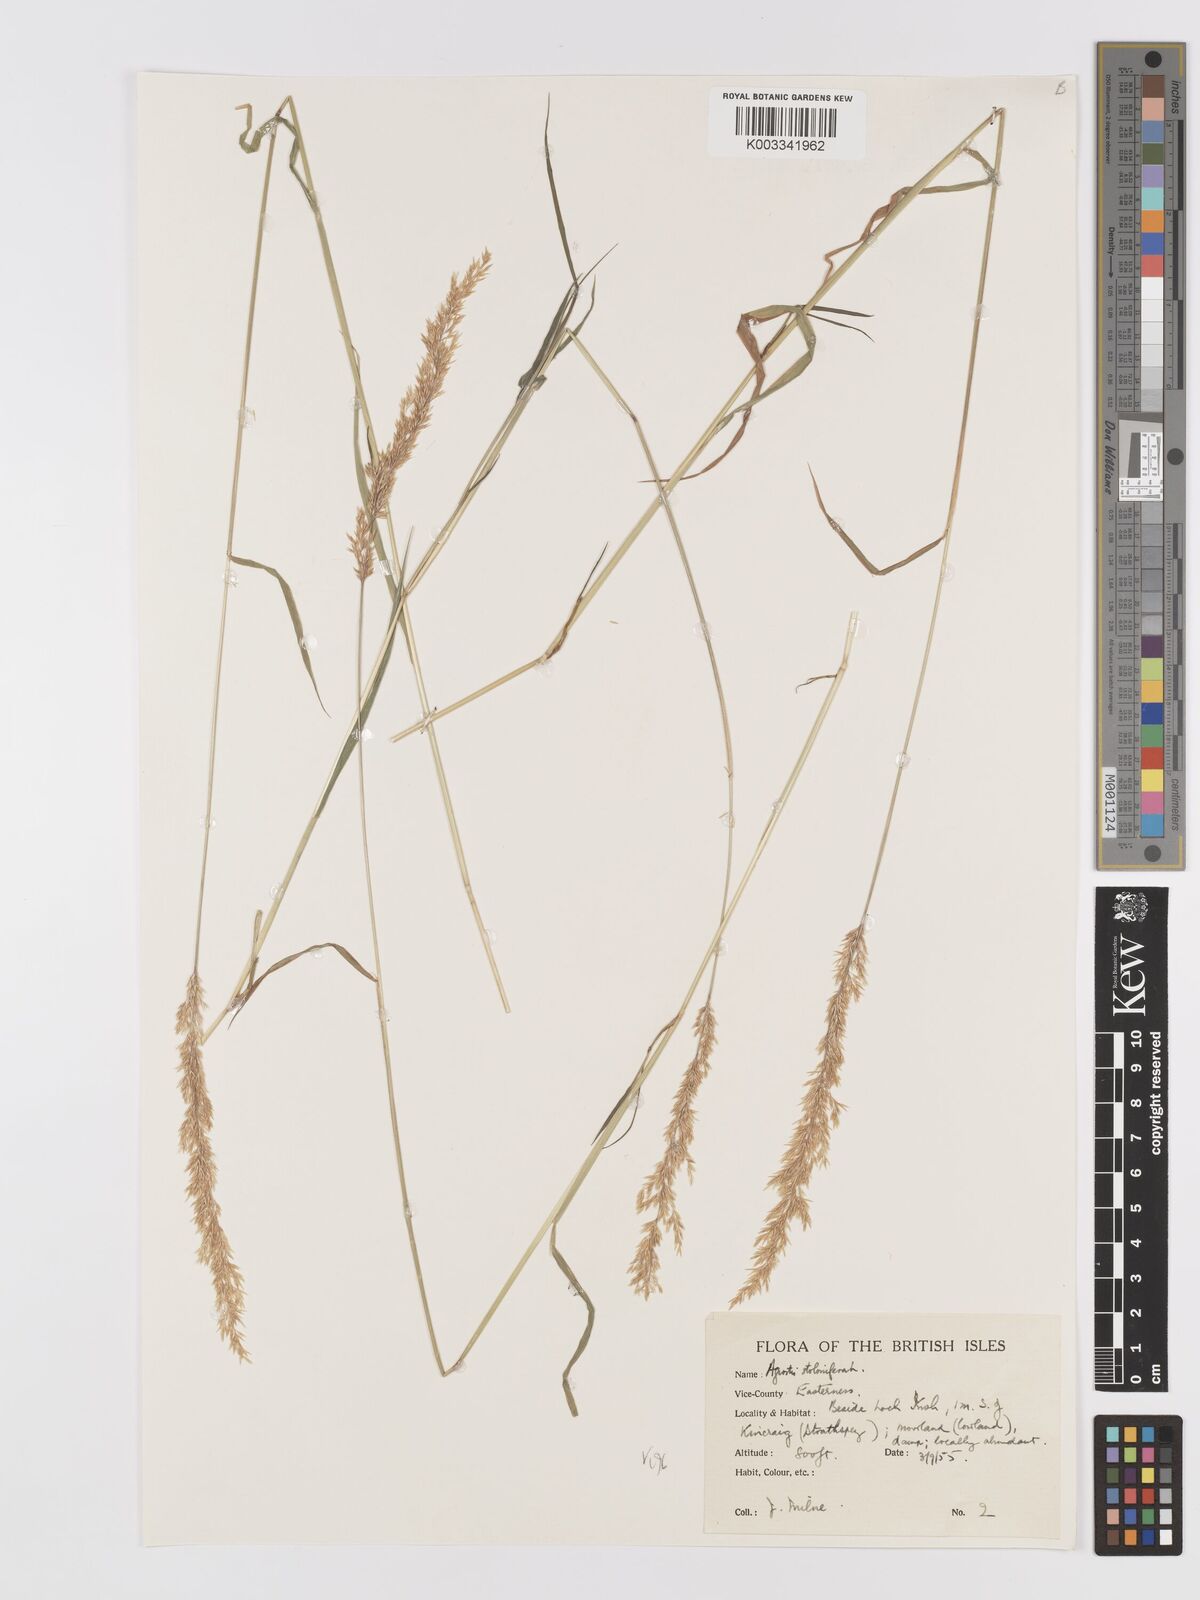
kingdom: Plantae
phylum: Tracheophyta
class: Liliopsida
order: Poales
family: Poaceae
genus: Agrostis
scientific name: Agrostis stolonifera
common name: Creeping bentgrass
